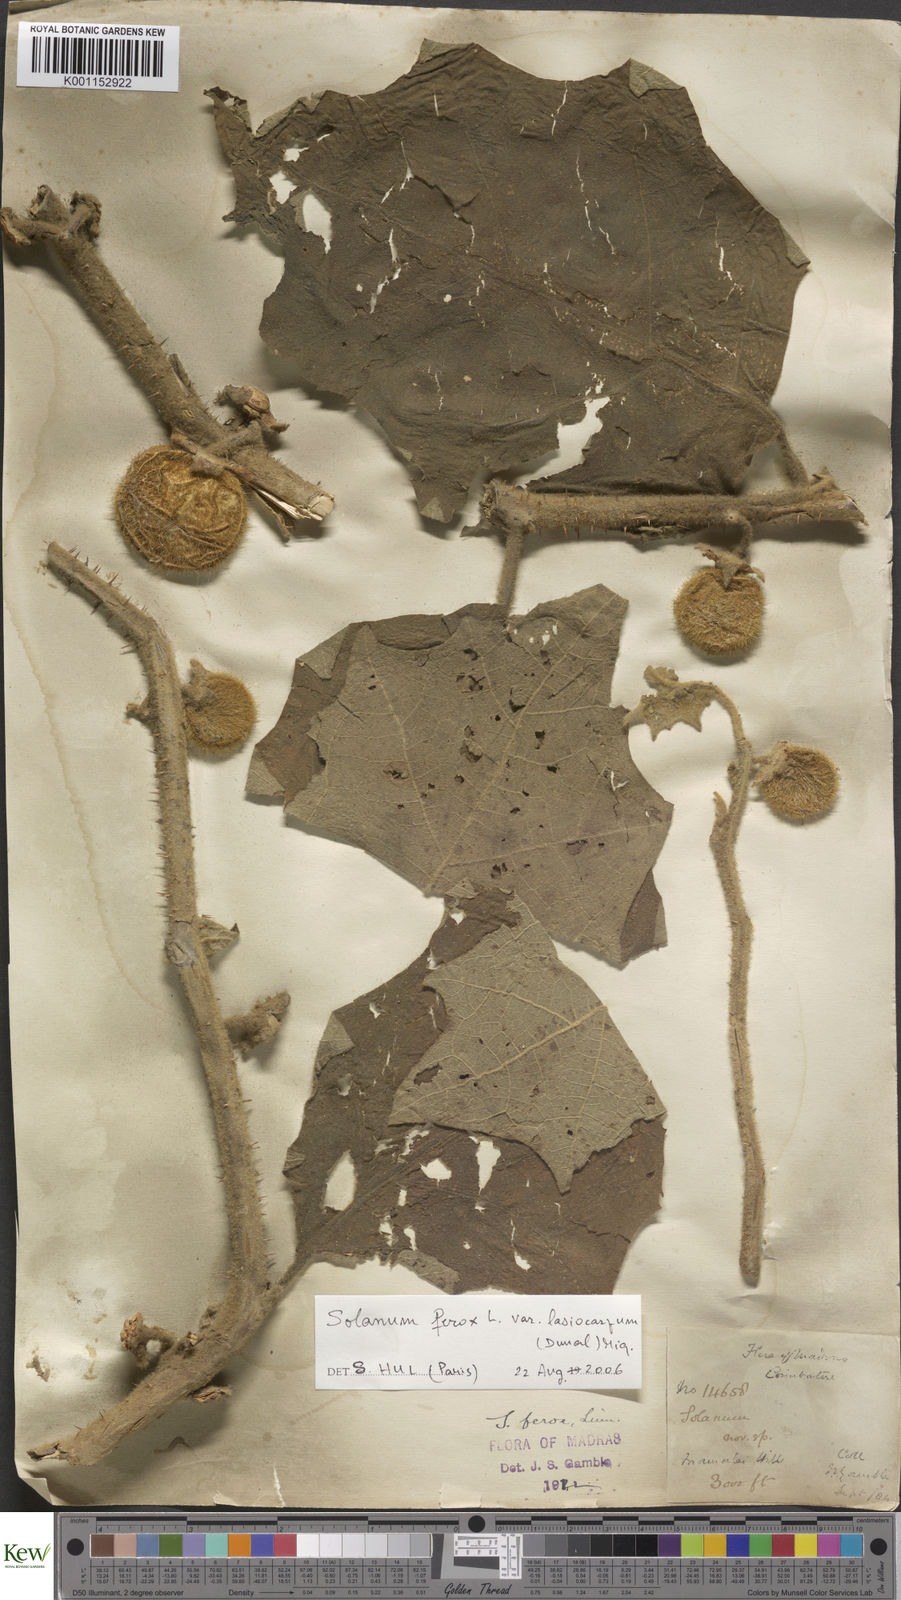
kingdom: Plantae
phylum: Tracheophyta
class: Magnoliopsida
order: Solanales
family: Solanaceae
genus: Solanum
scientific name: Solanum
